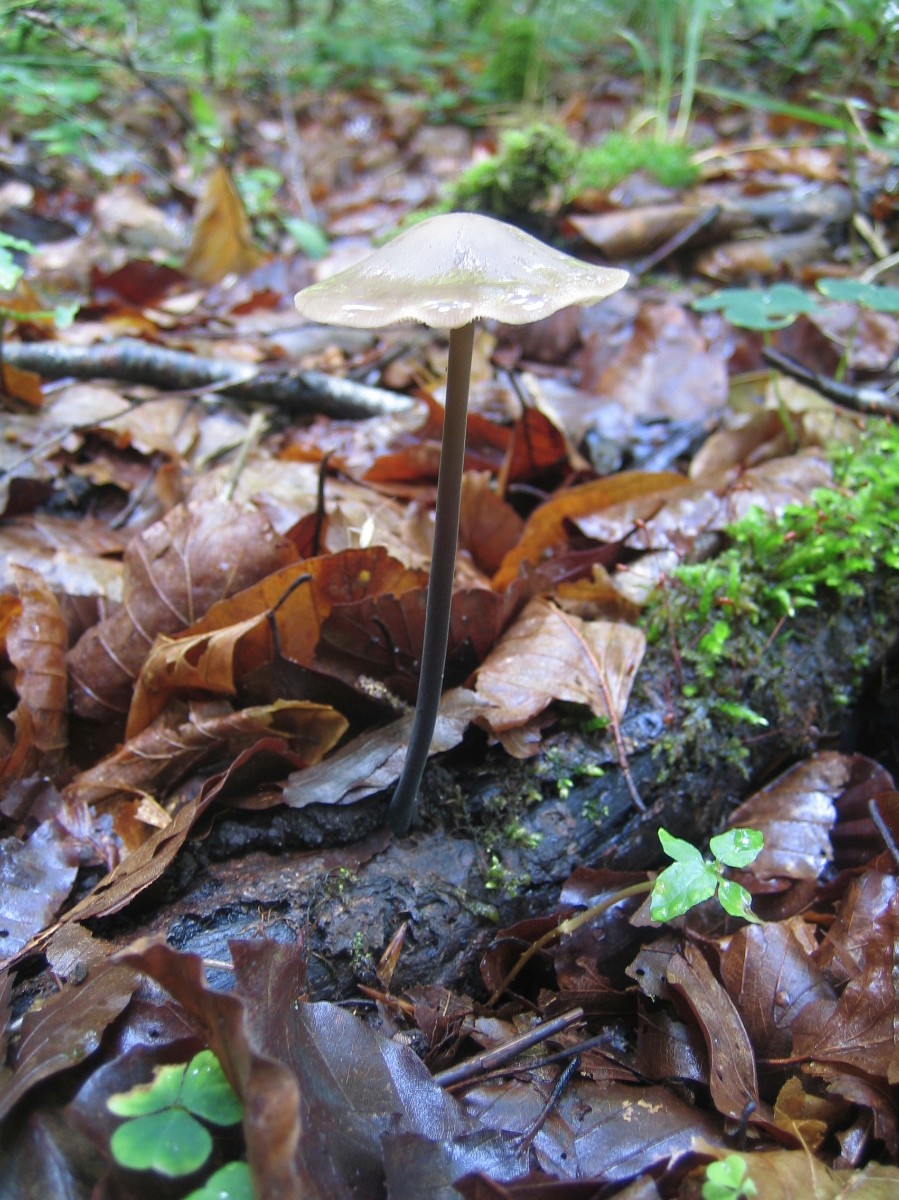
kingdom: Fungi
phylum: Basidiomycota
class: Agaricomycetes
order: Agaricales
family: Omphalotaceae
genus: Mycetinis
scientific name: Mycetinis alliaceus
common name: stor løghat
